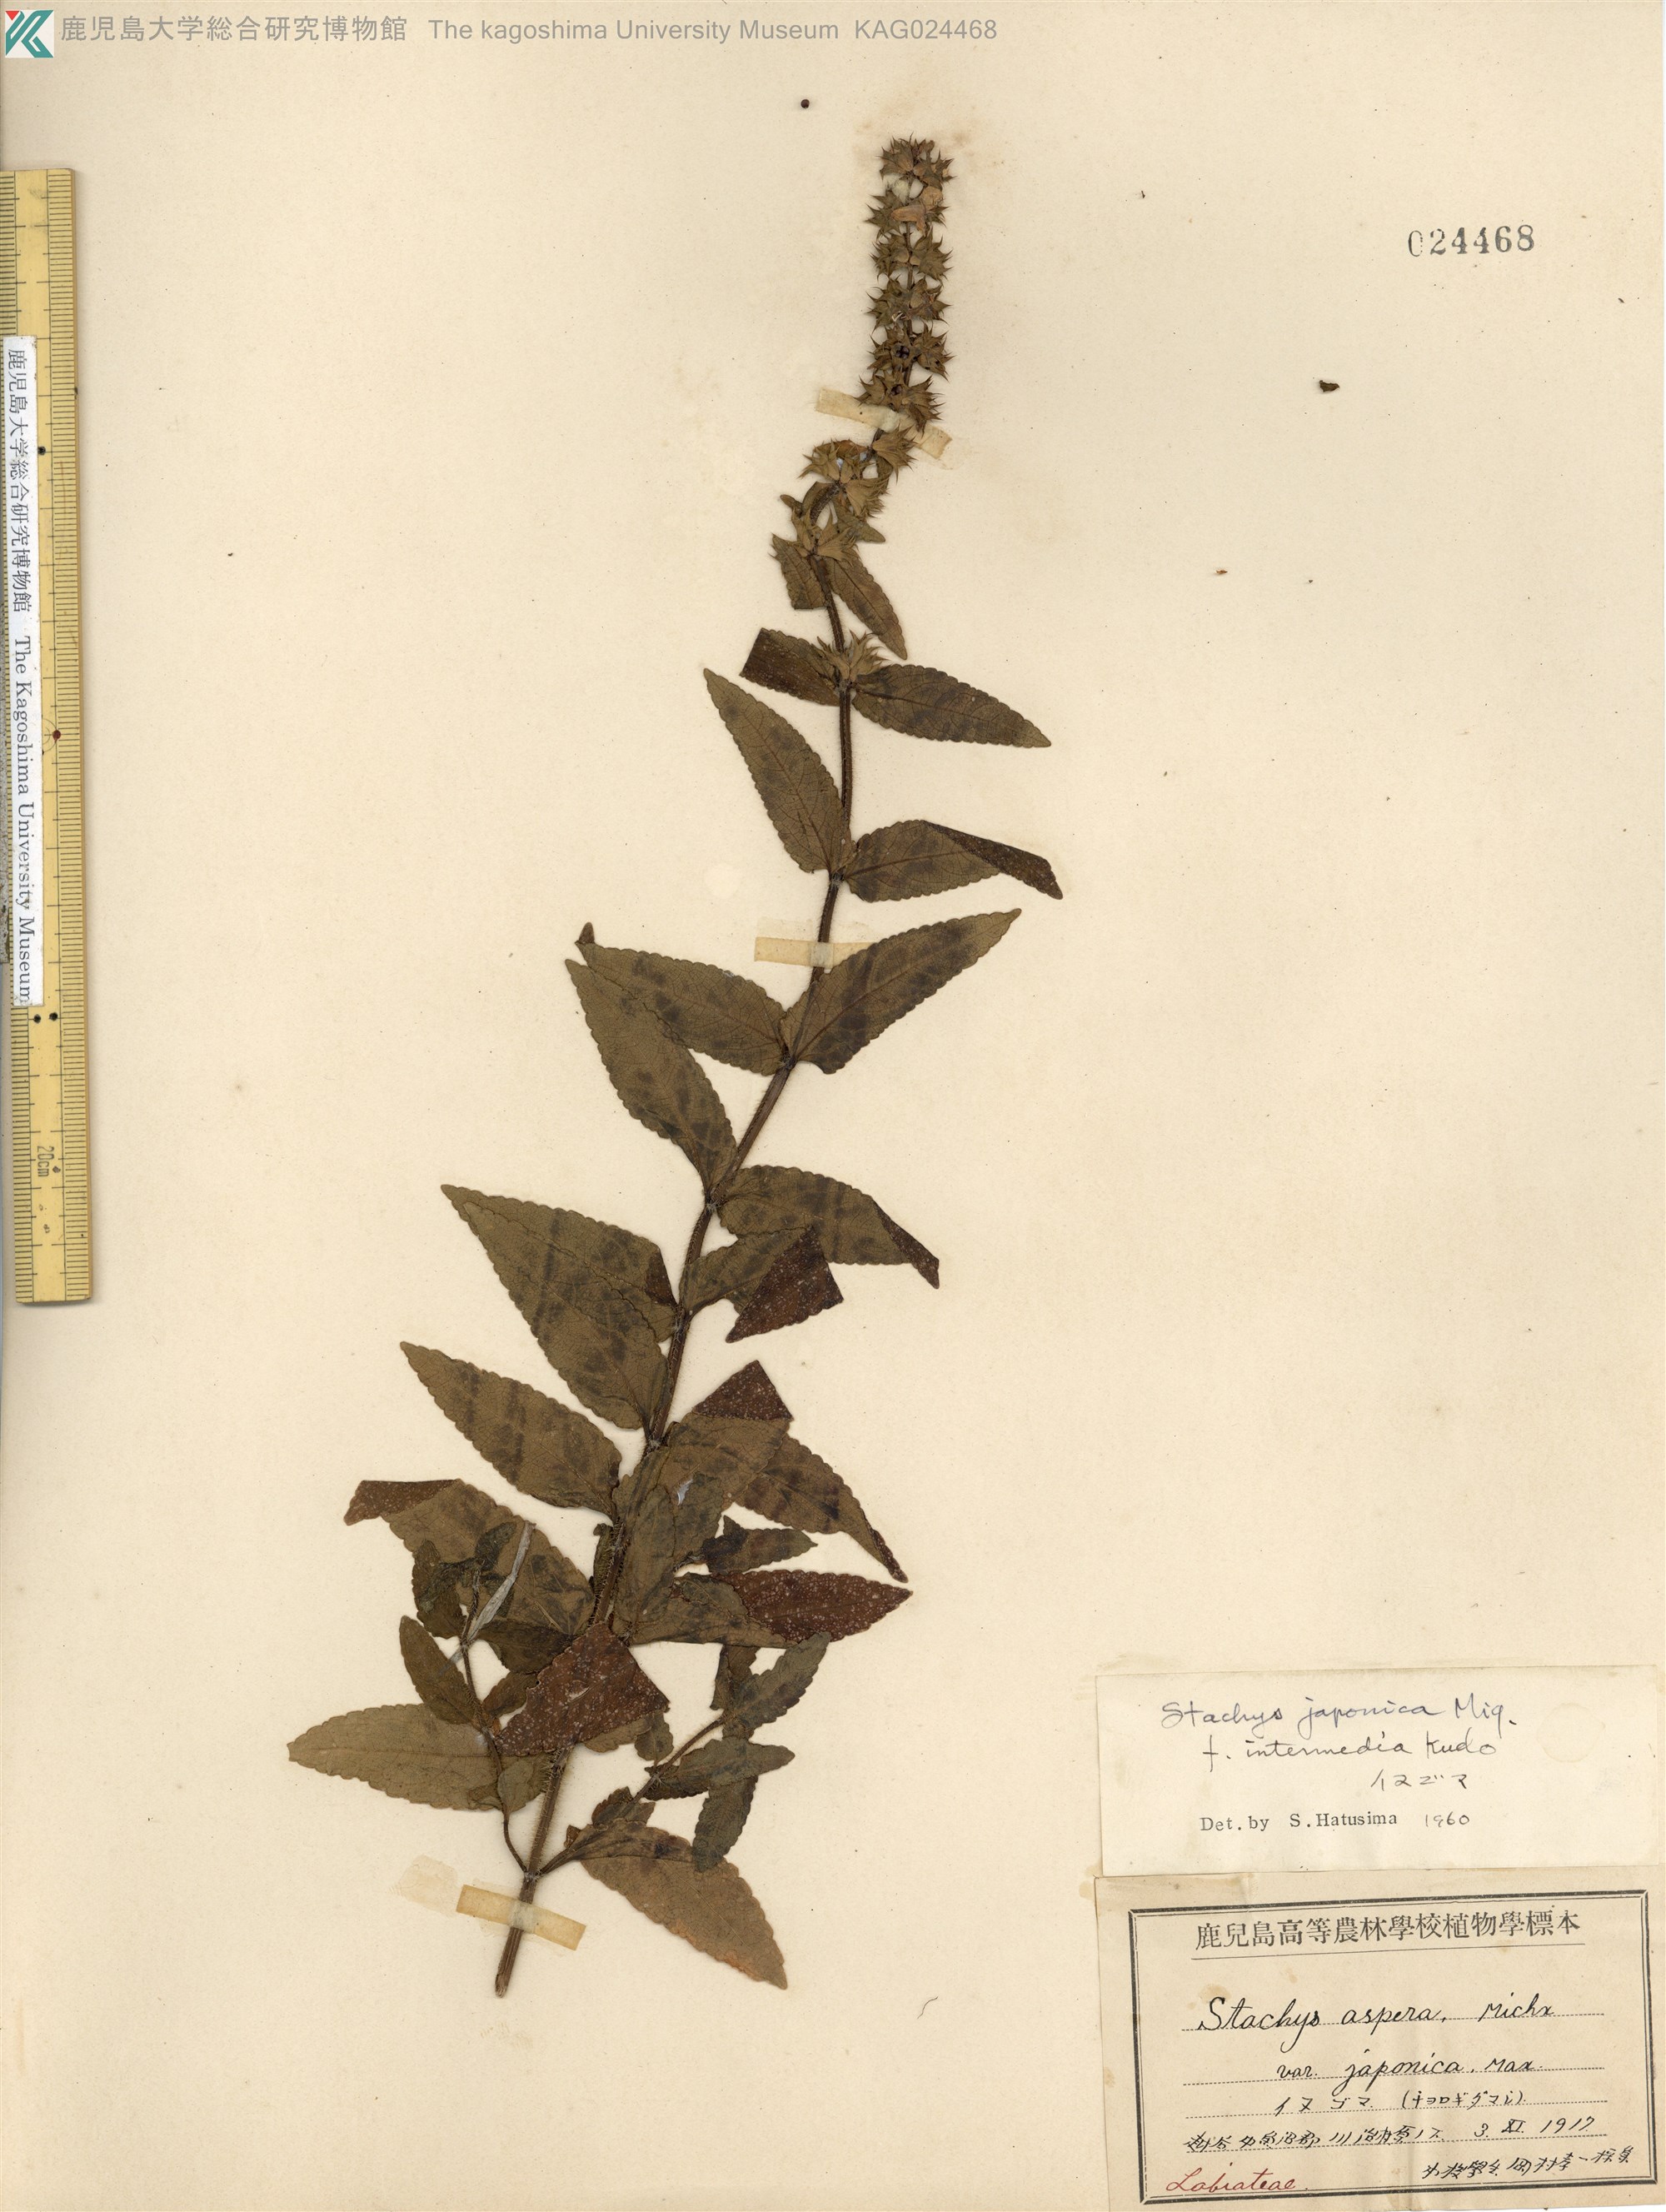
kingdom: Plantae
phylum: Tracheophyta
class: Magnoliopsida
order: Lamiales
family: Lamiaceae
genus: Stachys
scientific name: Stachys aspera
